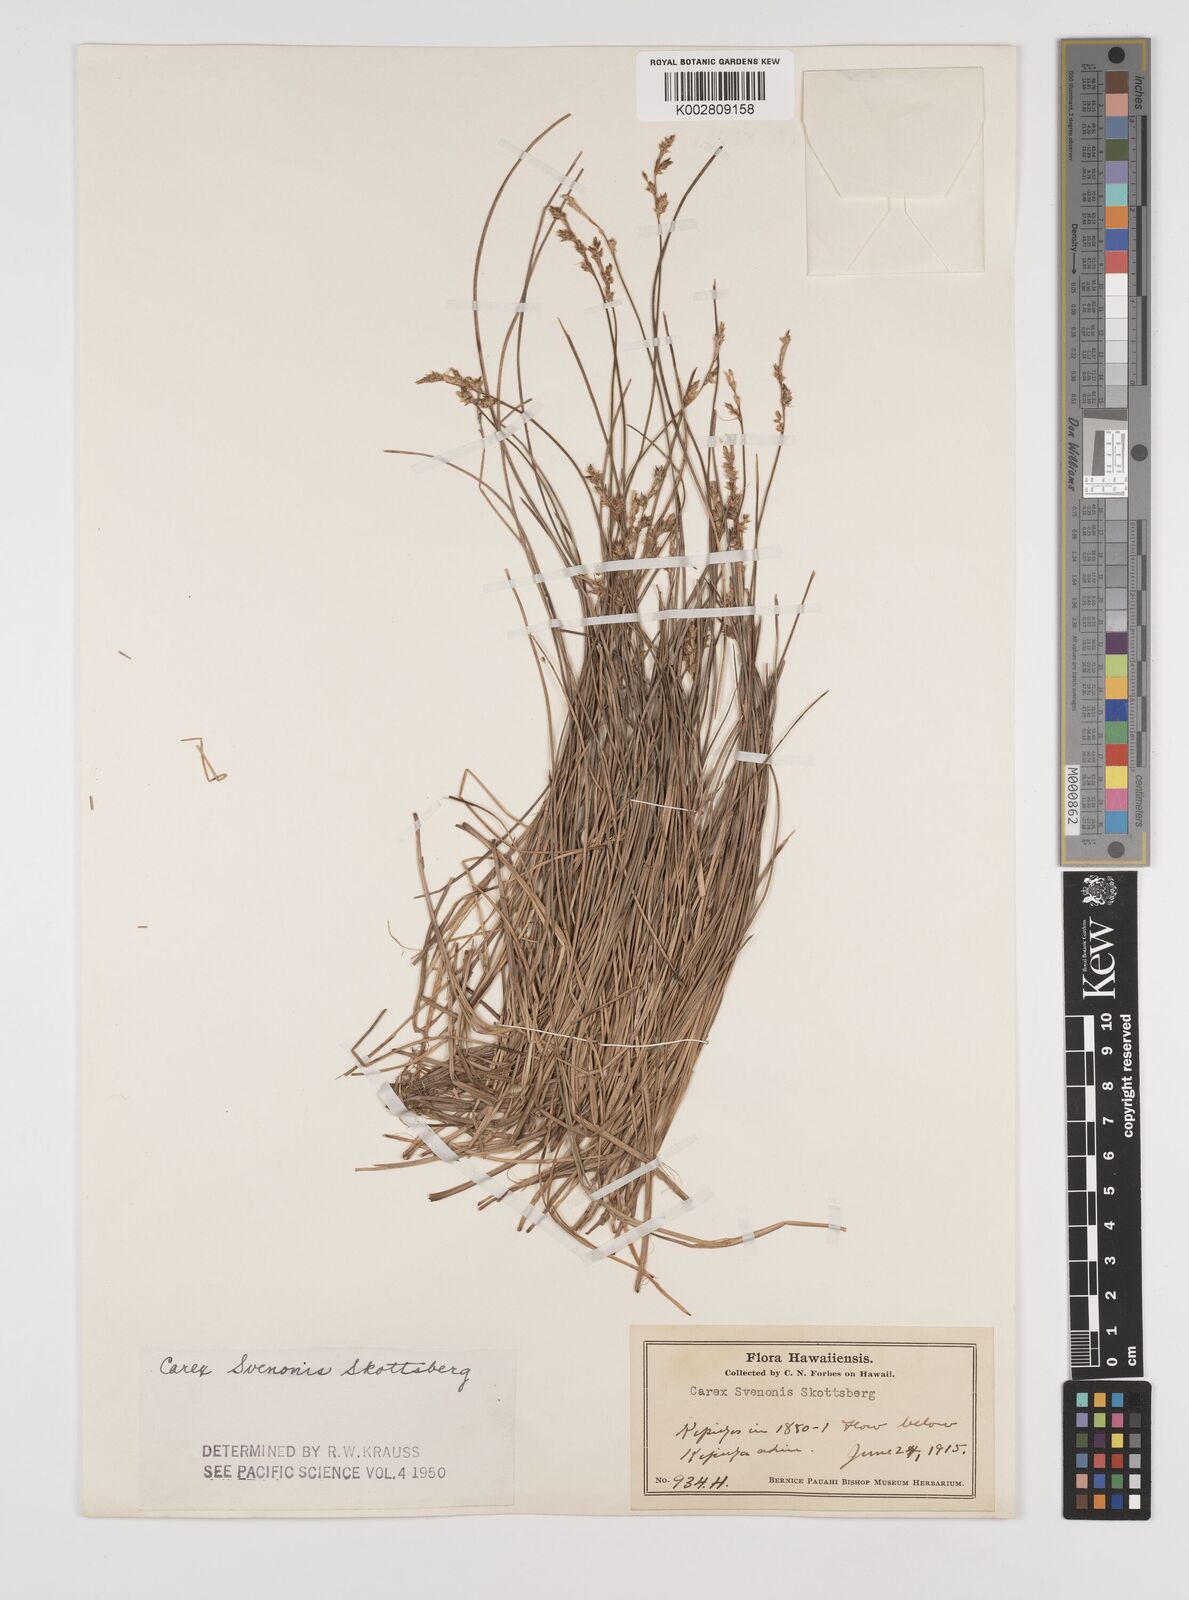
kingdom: Plantae
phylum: Tracheophyta
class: Liliopsida
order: Poales
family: Cyperaceae
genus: Carex
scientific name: Carex echinata
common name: Star sedge
